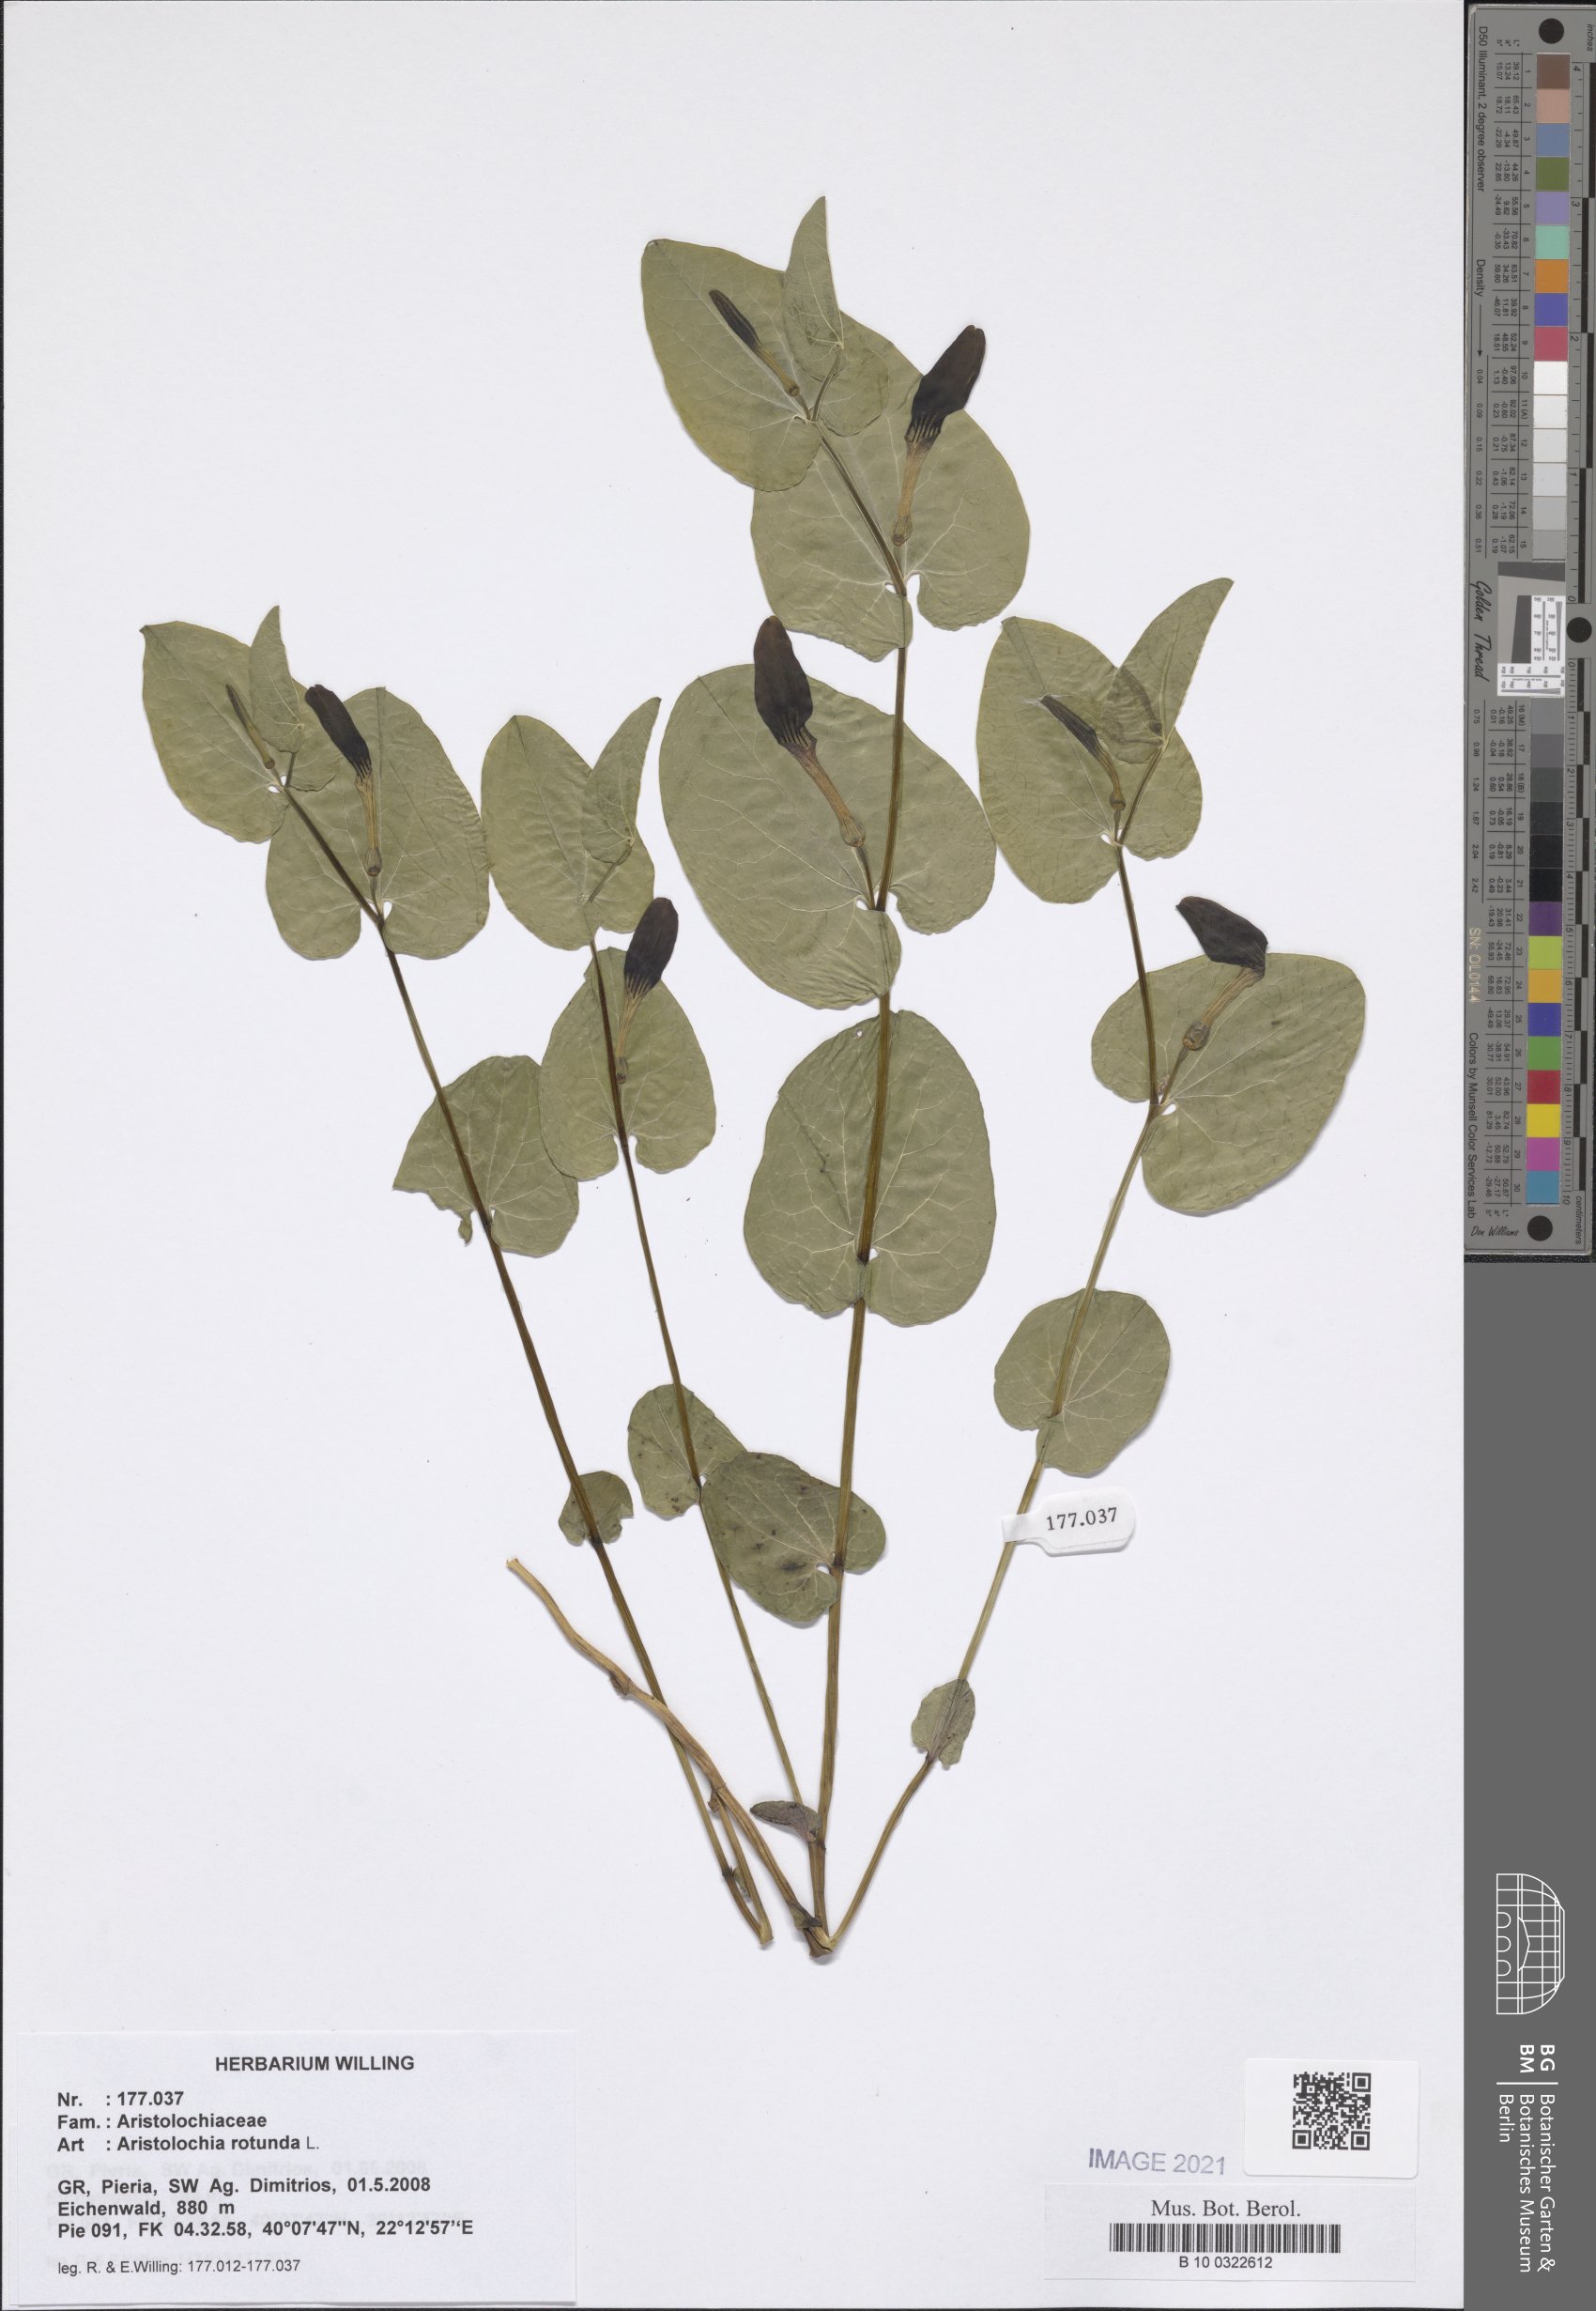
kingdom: Plantae
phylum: Tracheophyta
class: Magnoliopsida
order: Piperales
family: Aristolochiaceae
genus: Aristolochia
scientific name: Aristolochia rotunda
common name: Smearwort
